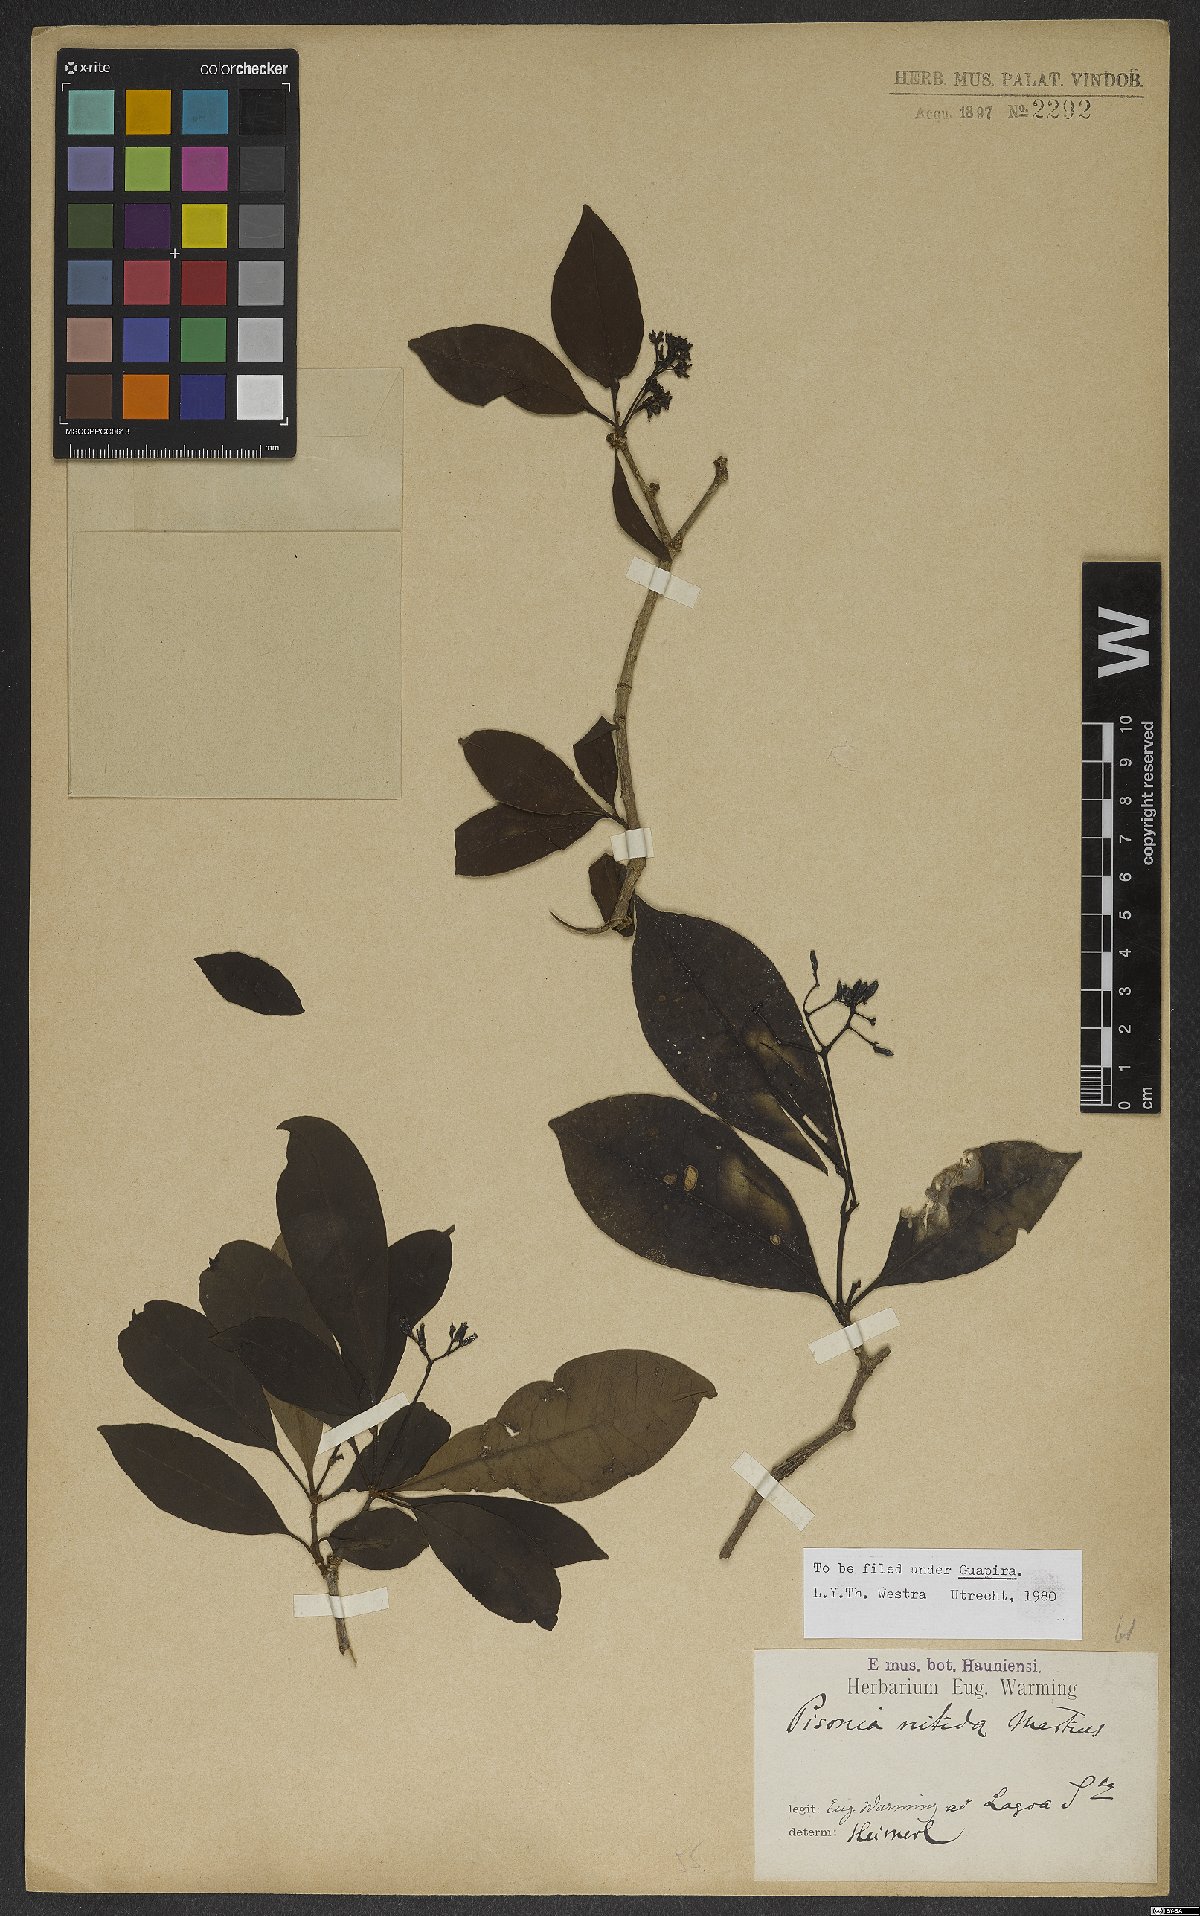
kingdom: Plantae
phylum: Tracheophyta
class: Magnoliopsida
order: Caryophyllales
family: Nyctaginaceae
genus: Guapira
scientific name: Guapira nitida
